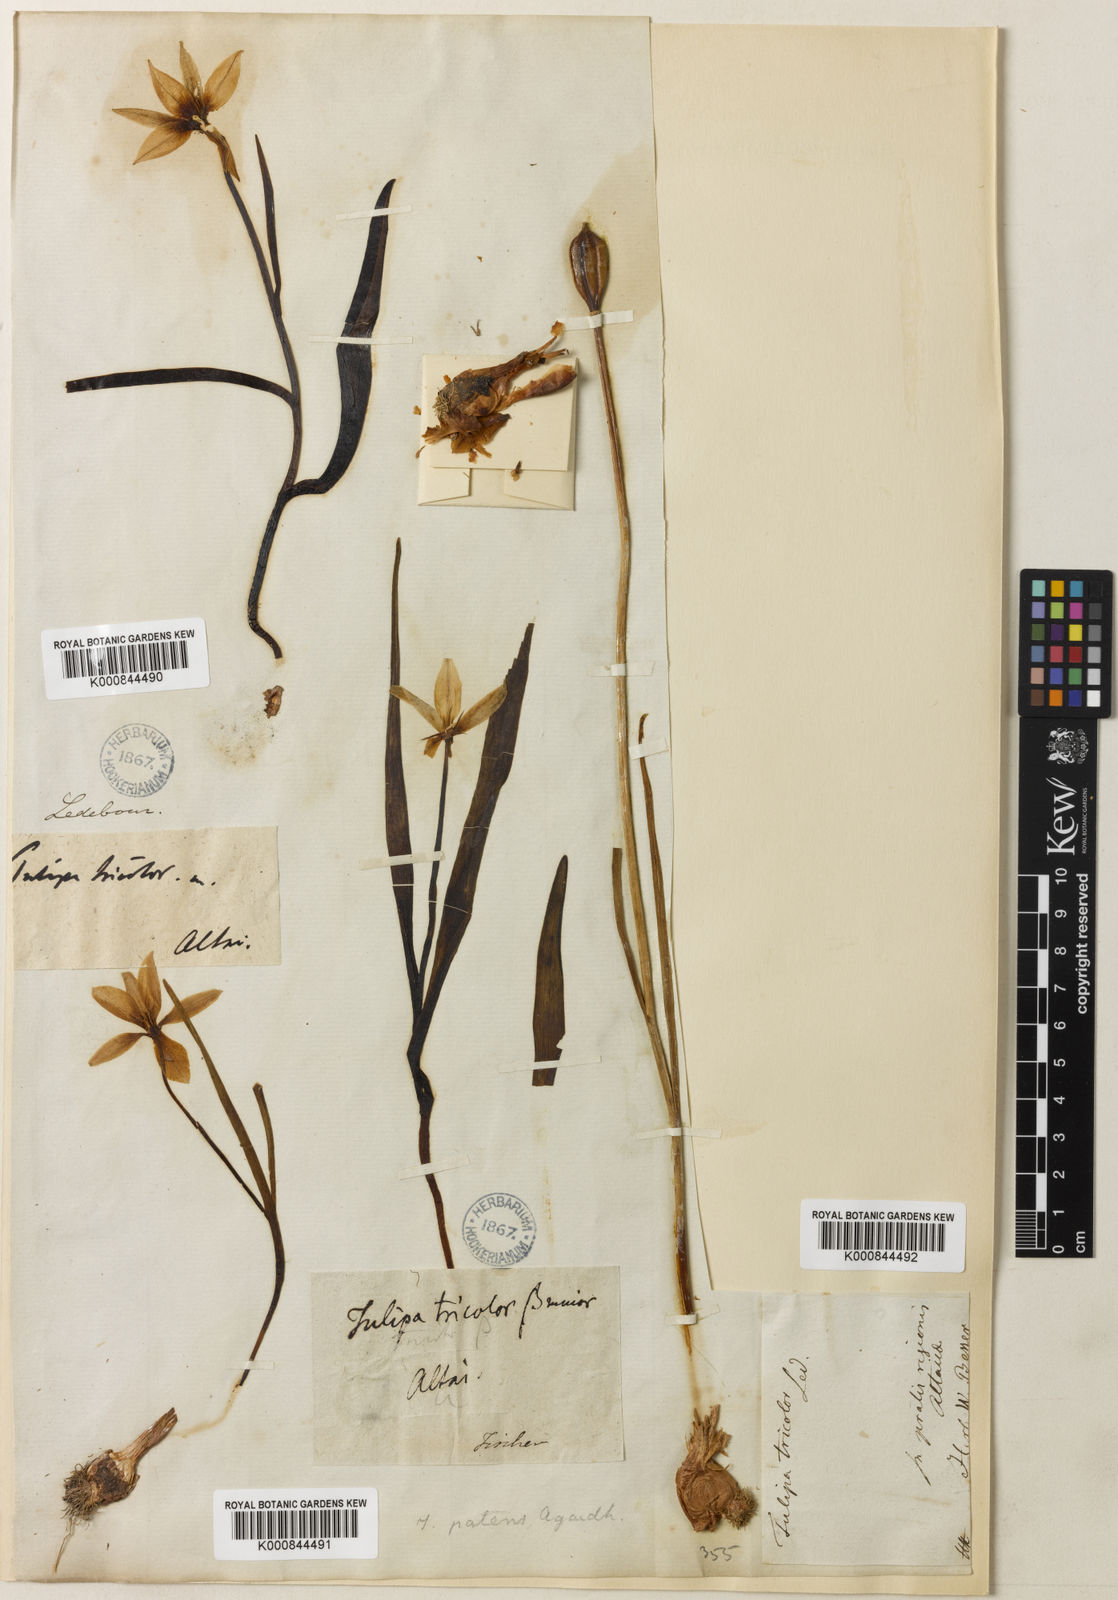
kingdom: Plantae
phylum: Tracheophyta
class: Liliopsida
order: Liliales
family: Liliaceae
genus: Tulipa
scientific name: Tulipa
